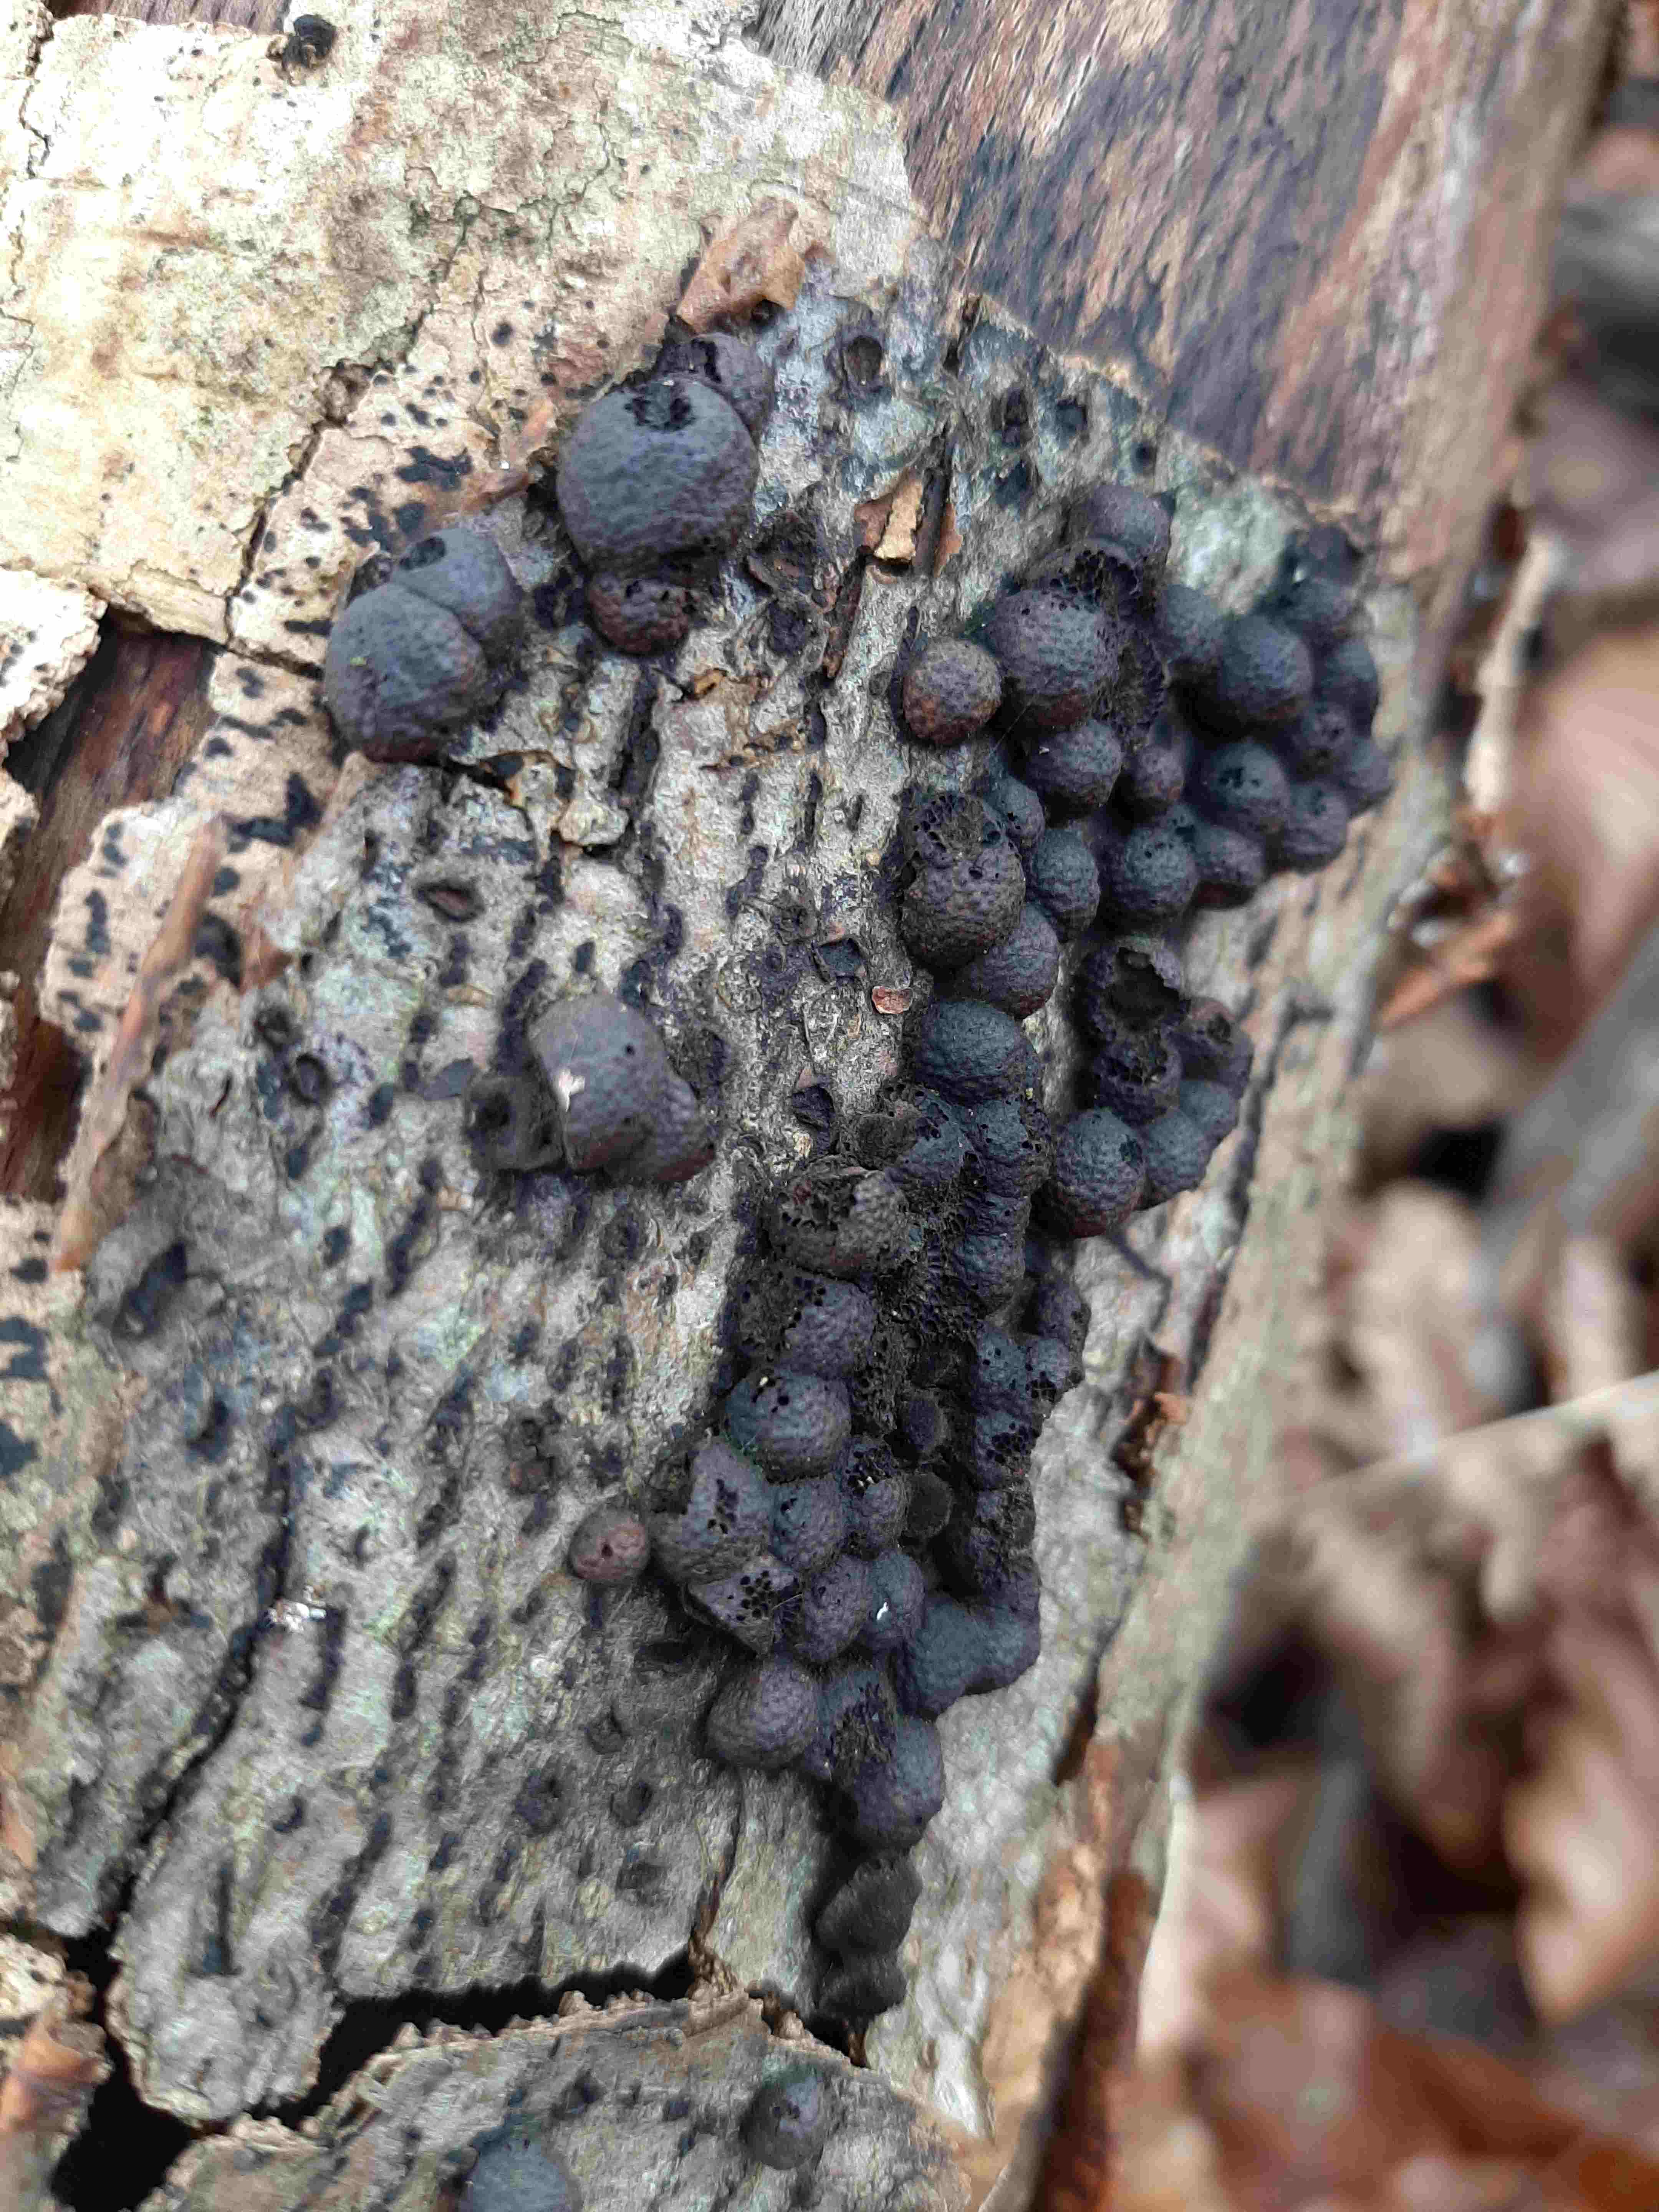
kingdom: Fungi
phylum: Ascomycota
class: Sordariomycetes
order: Xylariales
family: Hypoxylaceae
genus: Hypoxylon
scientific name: Hypoxylon fragiforme
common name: kuljordbær
